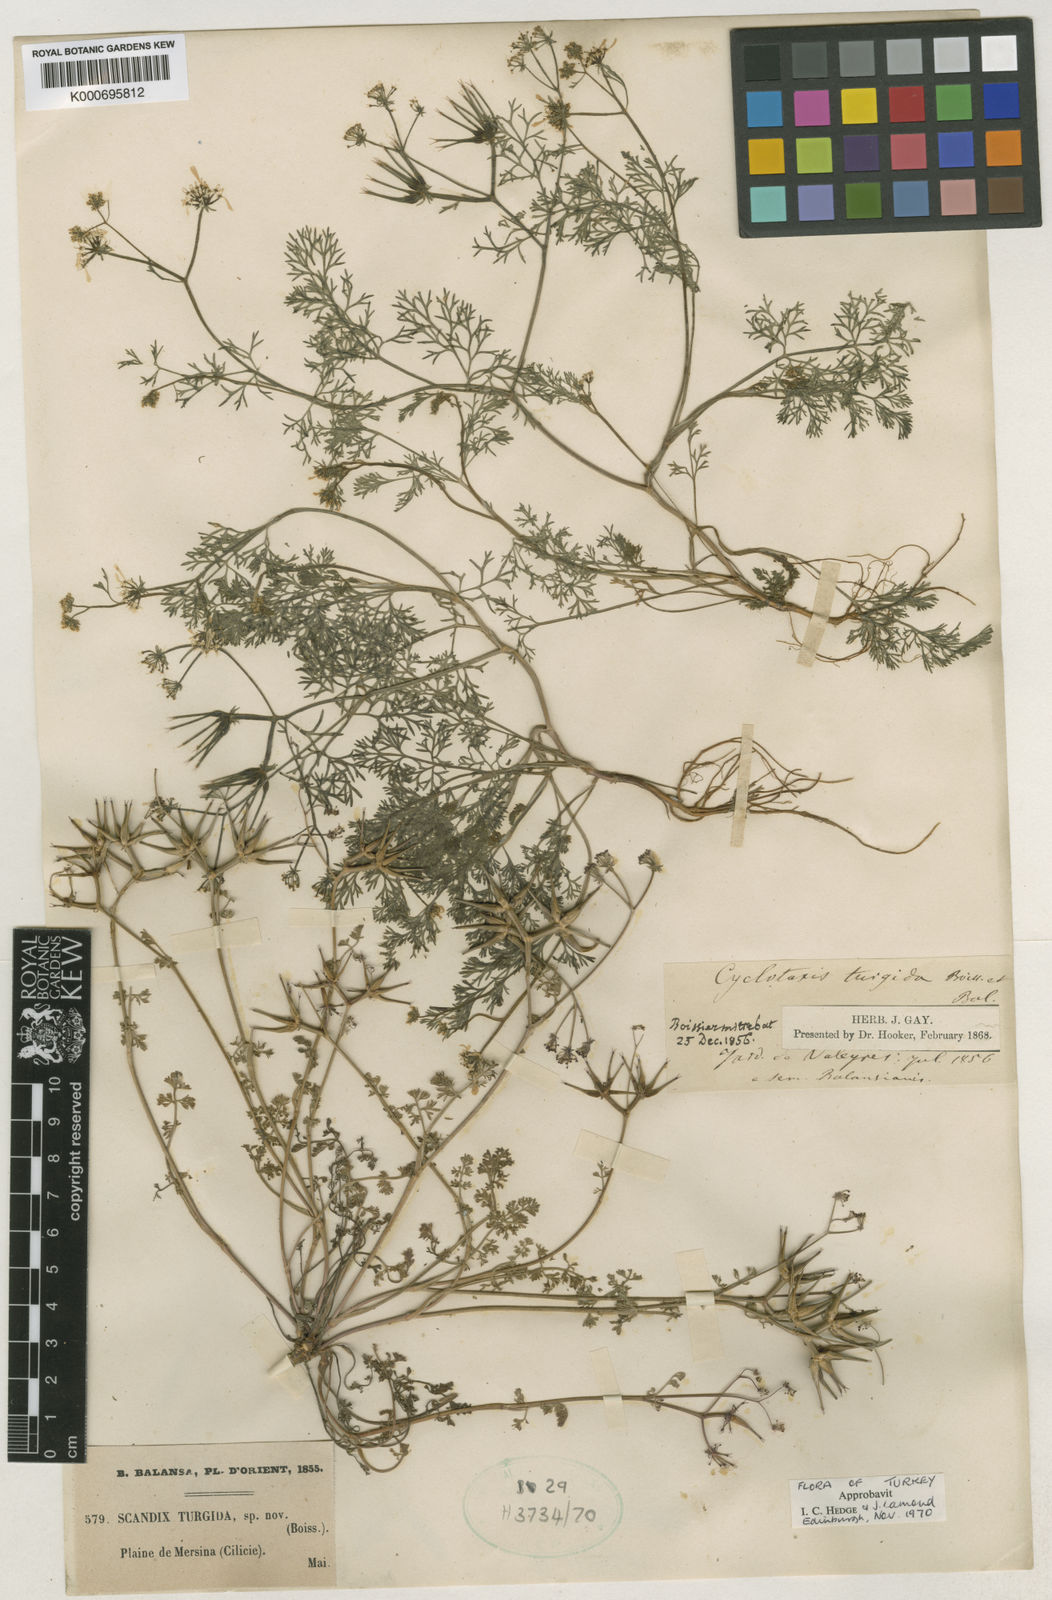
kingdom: Plantae
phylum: Tracheophyta
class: Magnoliopsida
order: Apiales
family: Apiaceae
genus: Scandix
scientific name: Scandix turgida
